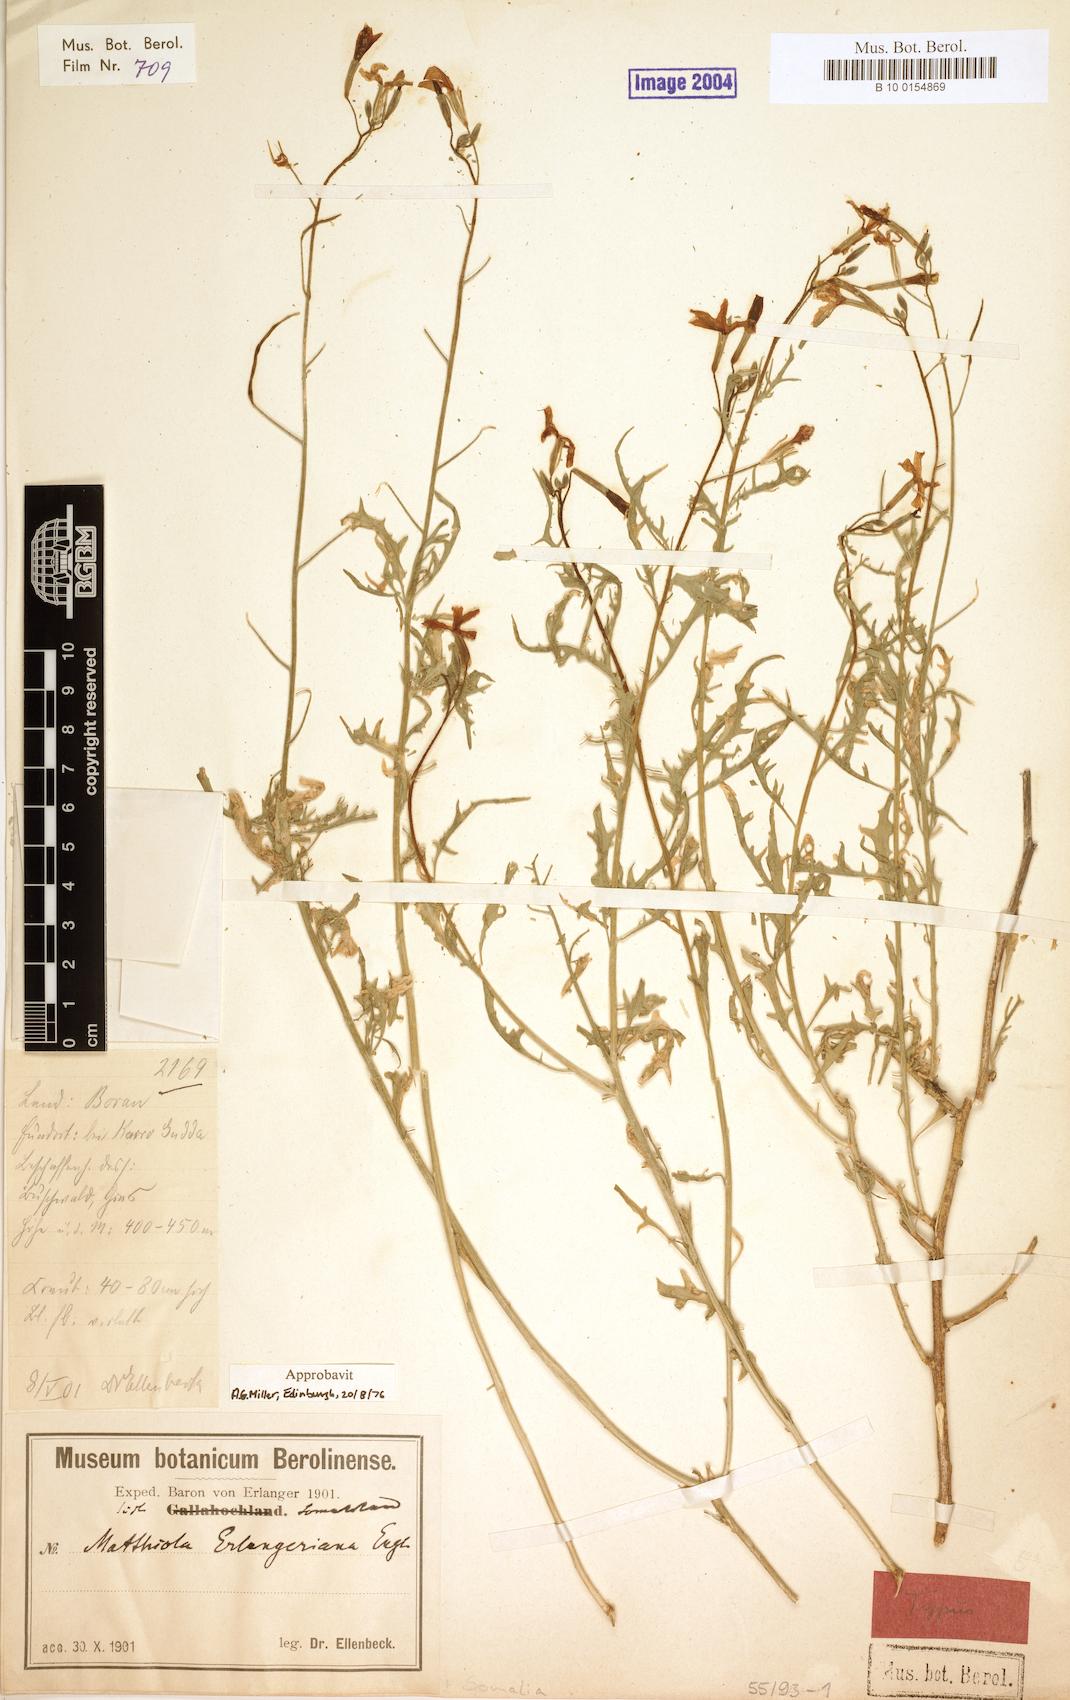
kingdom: Plantae
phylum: Tracheophyta
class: Magnoliopsida
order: Brassicales
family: Brassicaceae
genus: Matthiola
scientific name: Matthiola erlangeriana
